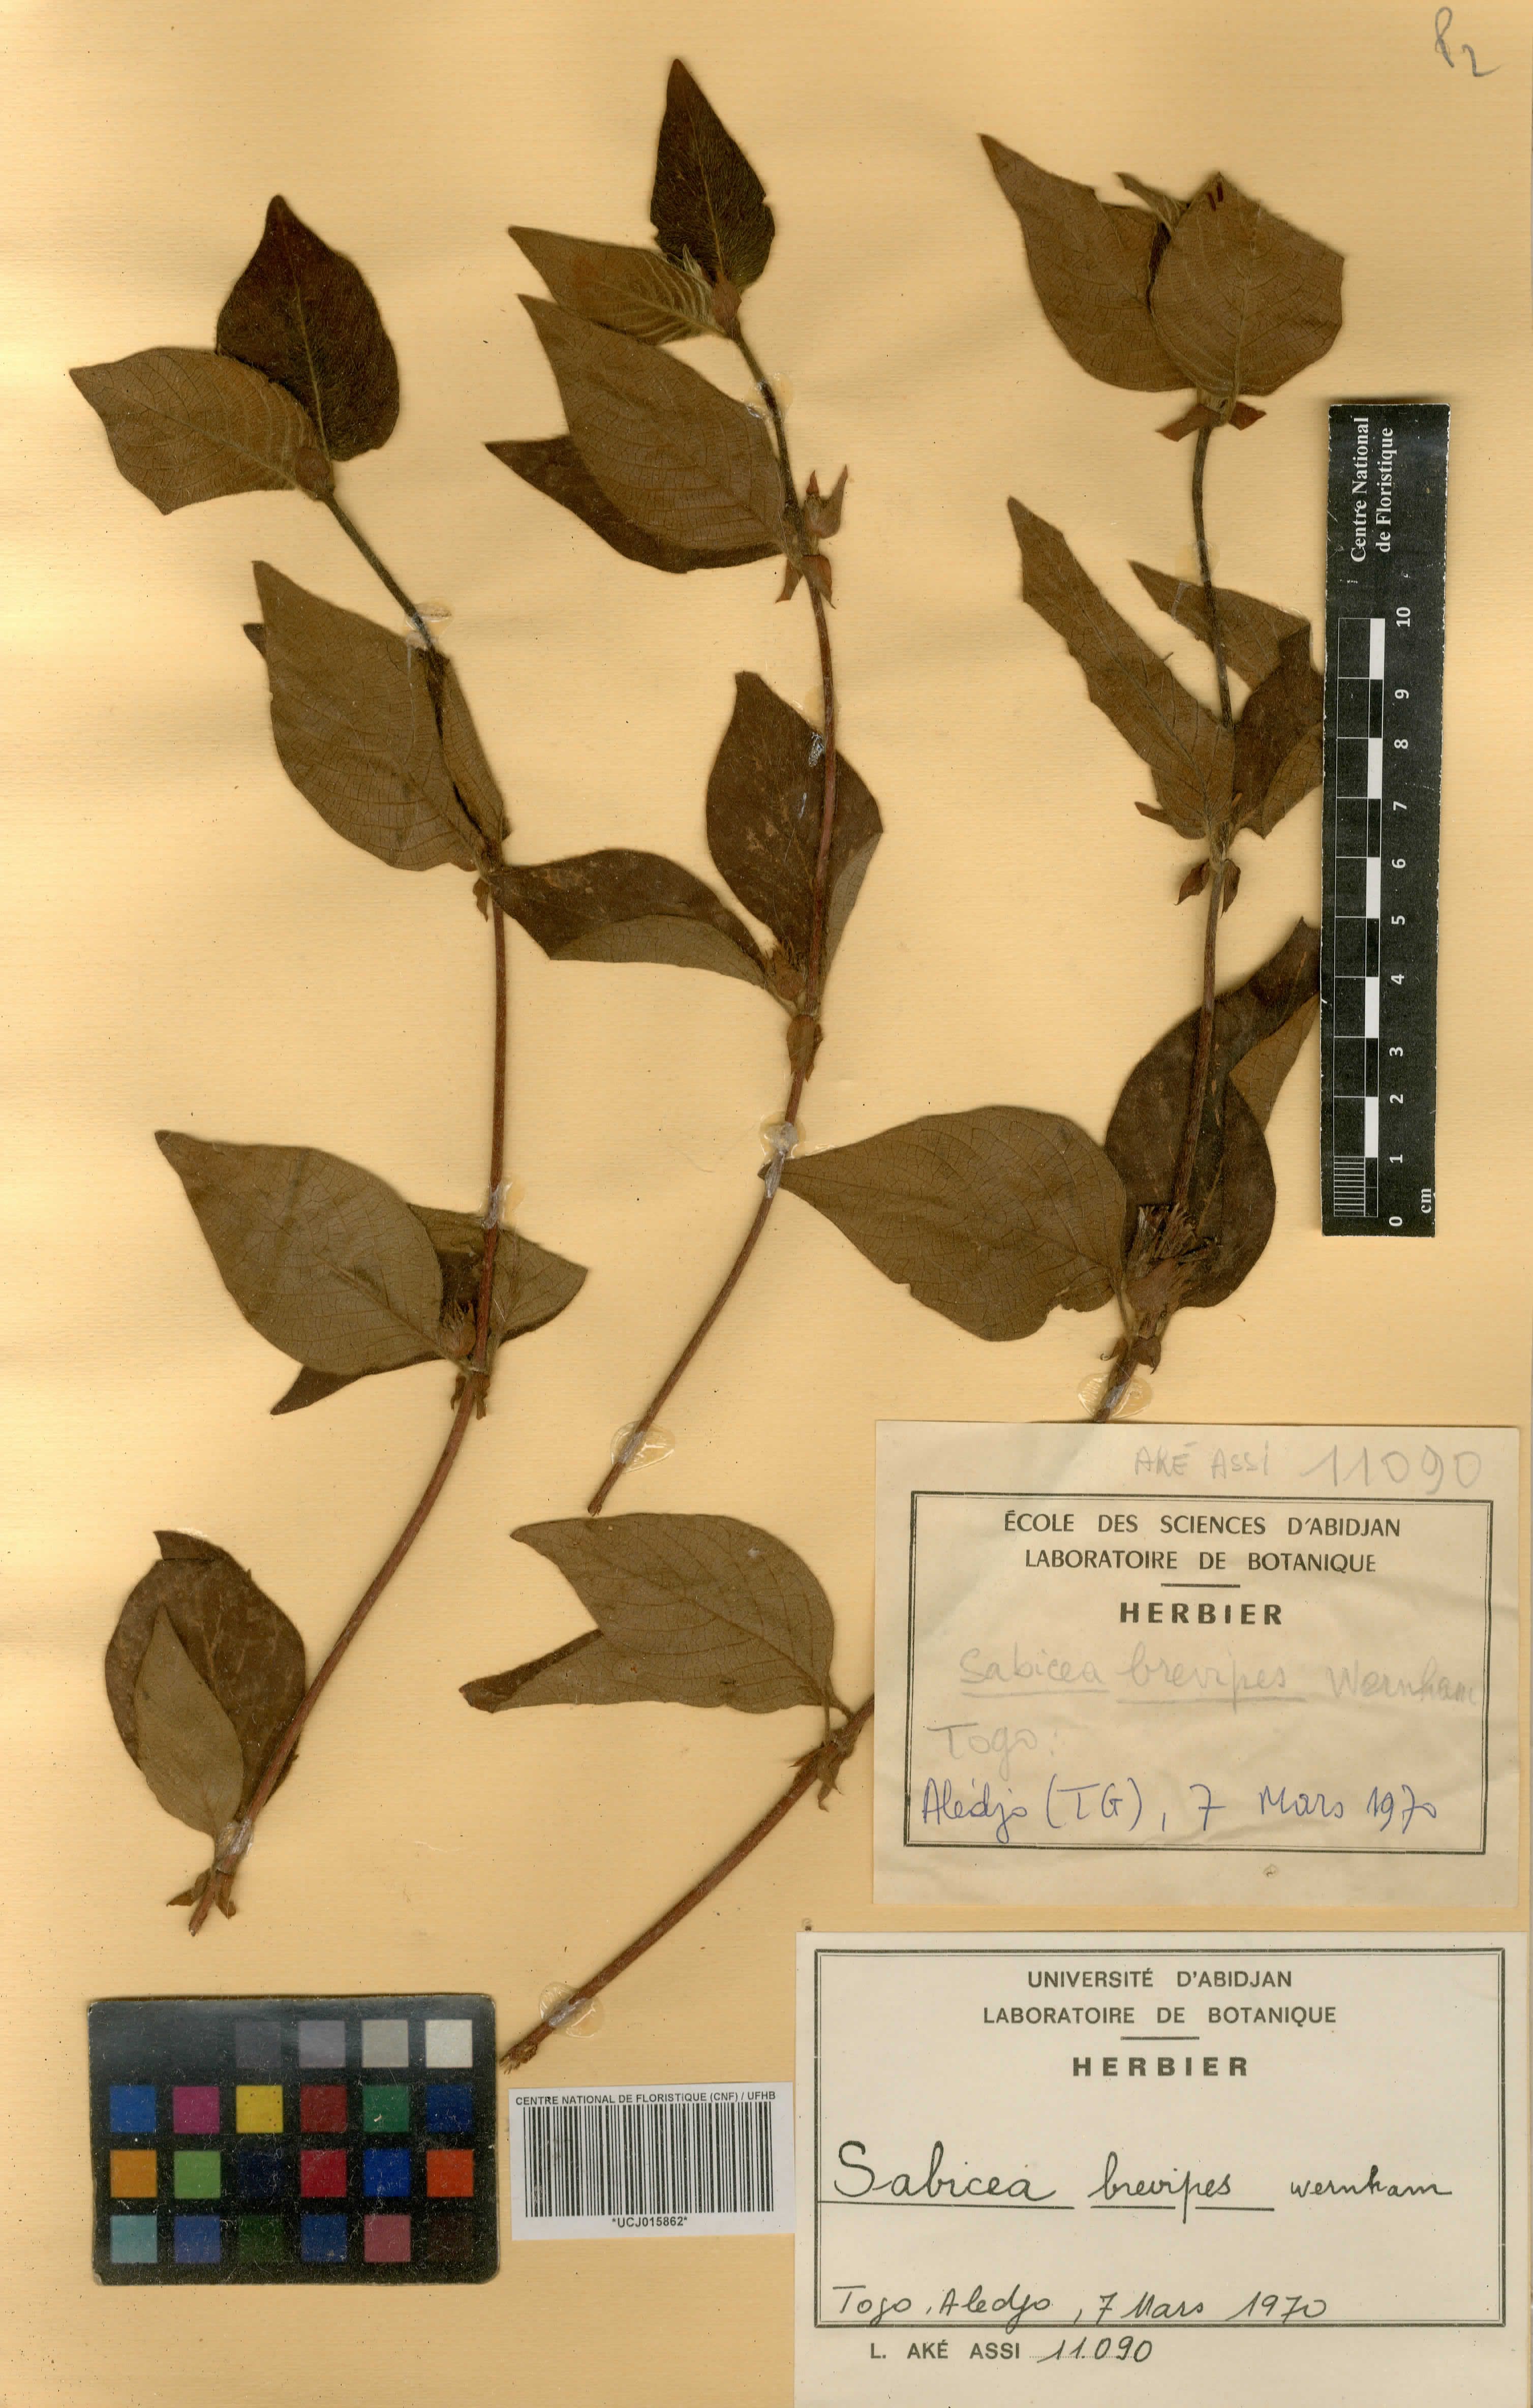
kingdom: Plantae
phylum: Tracheophyta
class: Magnoliopsida
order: Gentianales
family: Rubiaceae
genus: Sabicea
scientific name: Sabicea brevipes
